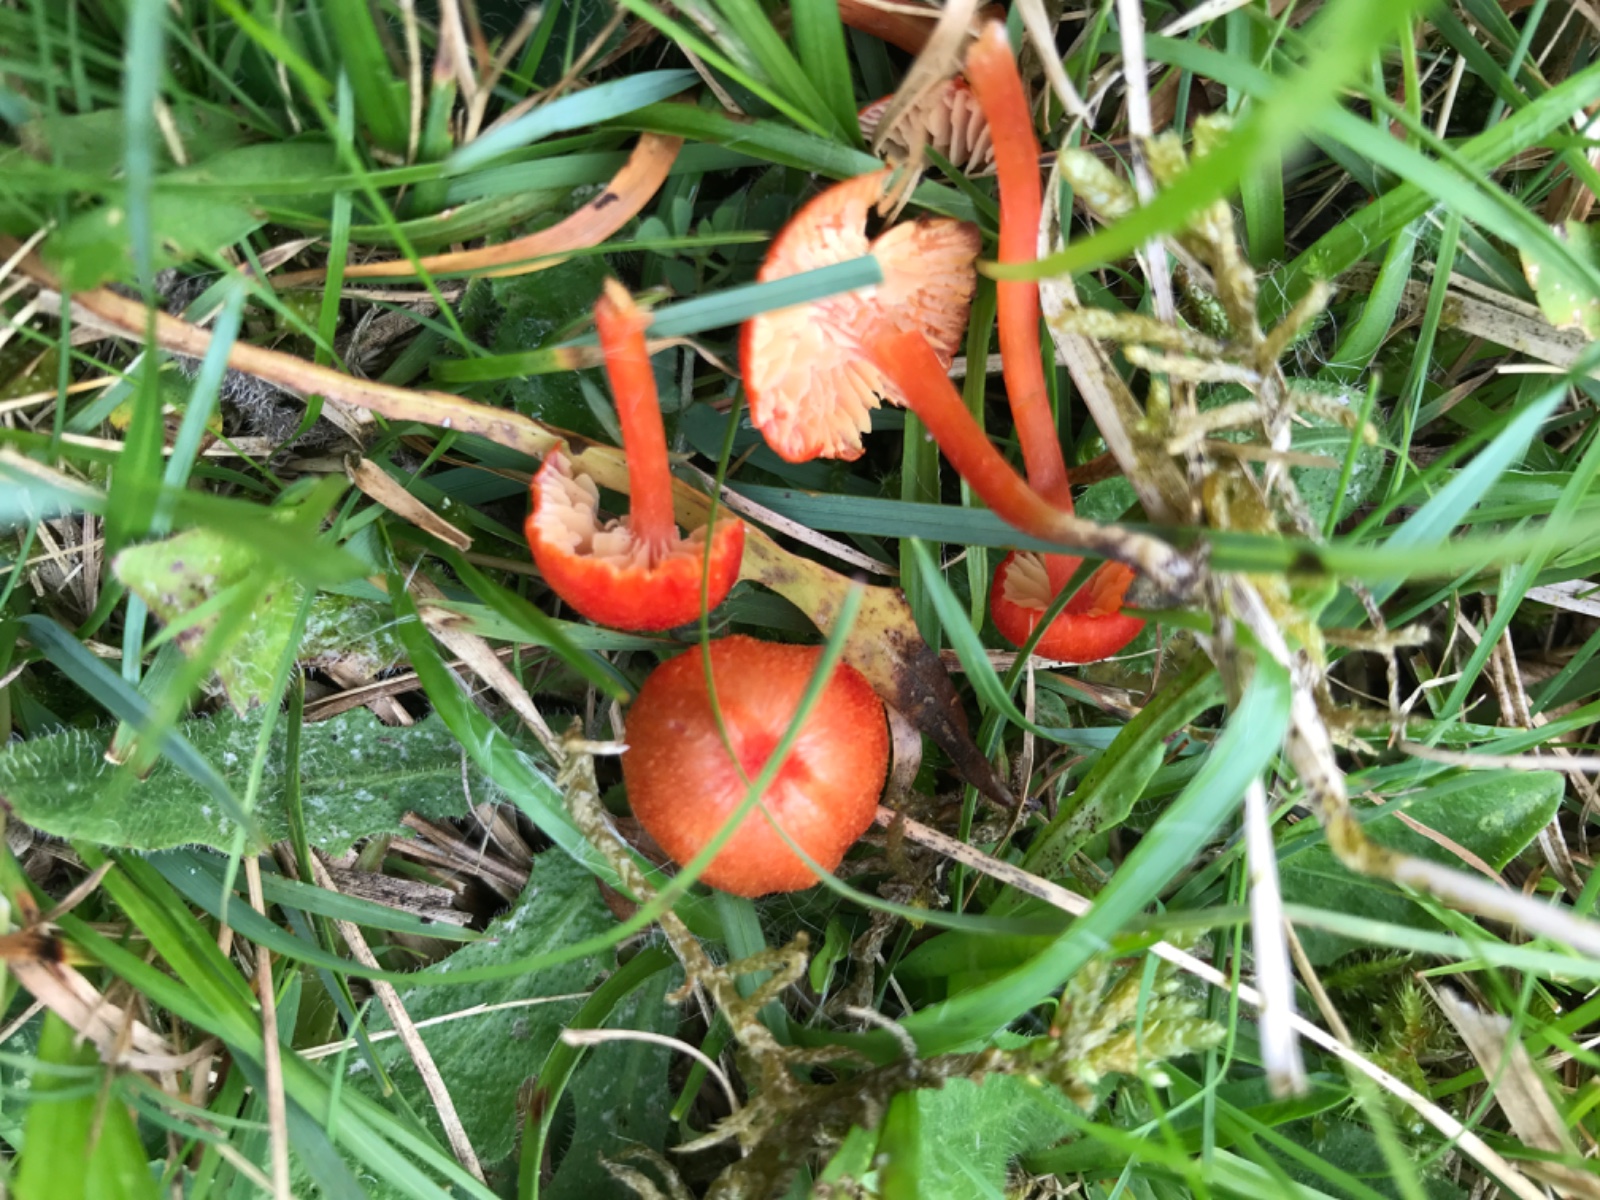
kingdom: Fungi
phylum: Basidiomycota
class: Agaricomycetes
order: Agaricales
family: Hygrophoraceae
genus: Hygrocybe
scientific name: Hygrocybe helobia
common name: hvidløgs-vokshat
